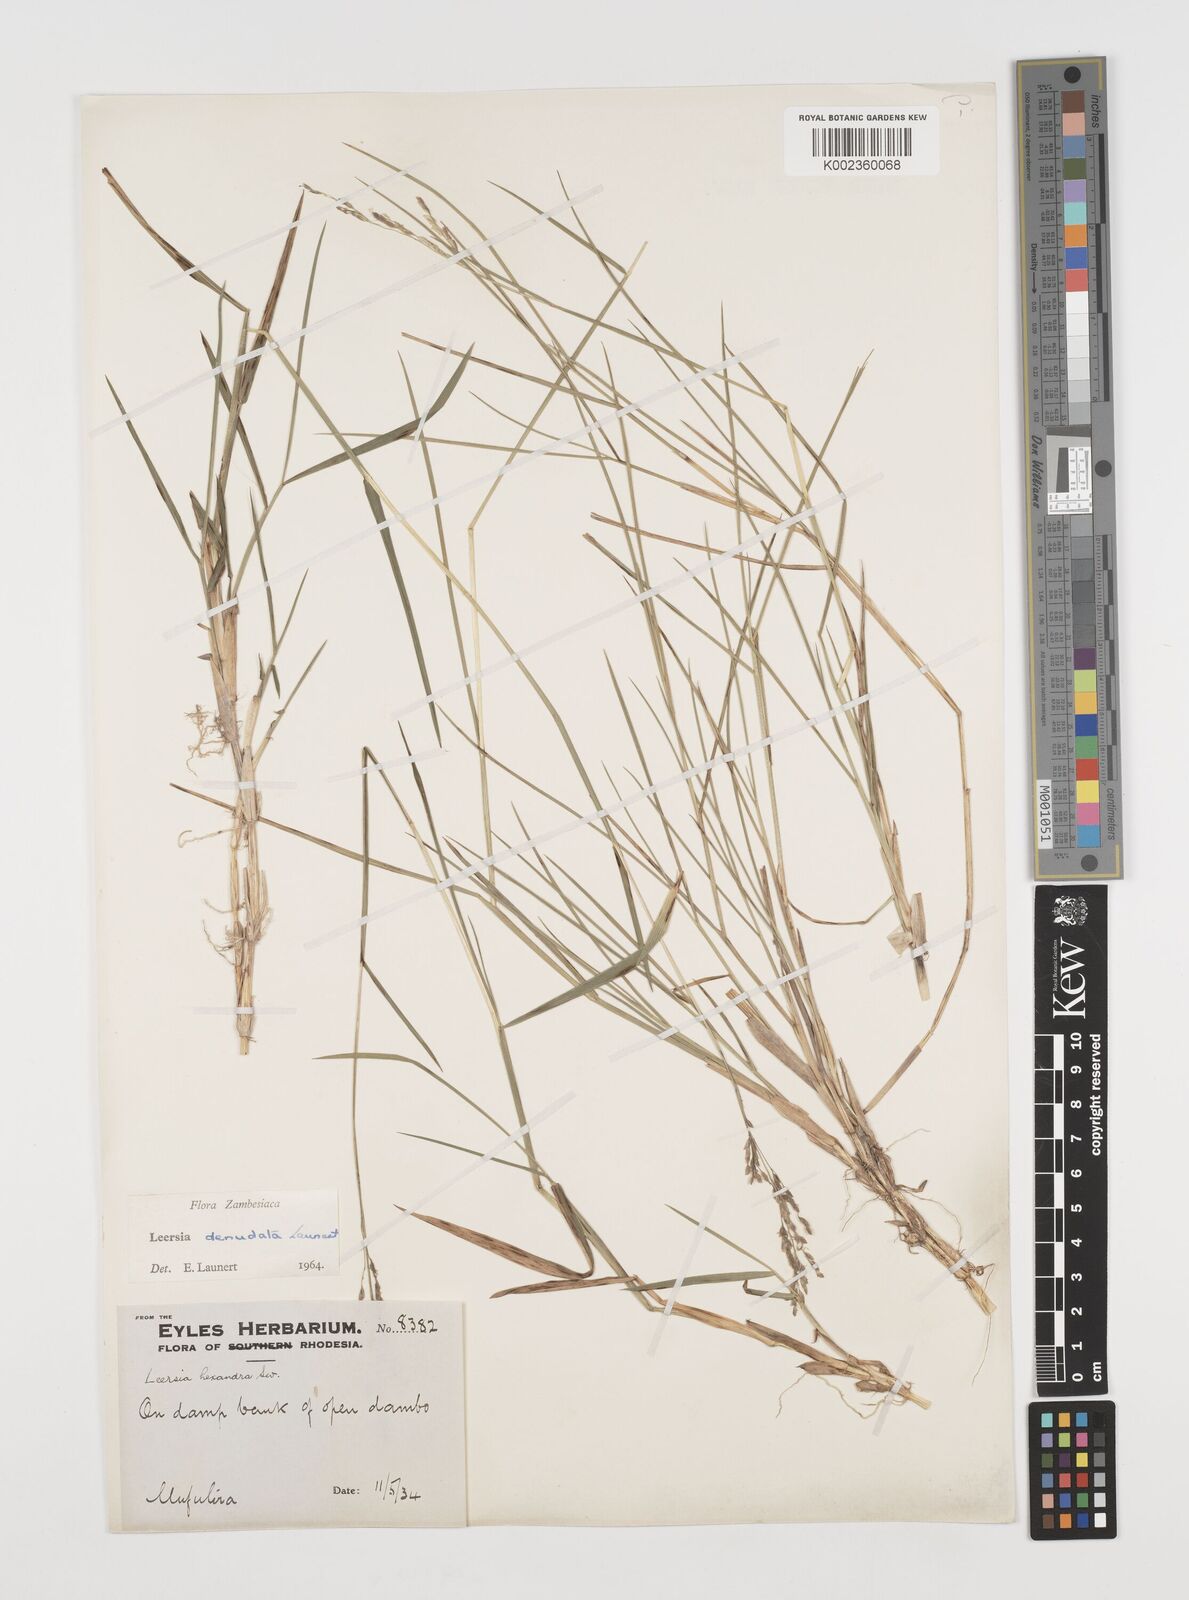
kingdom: Plantae
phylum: Tracheophyta
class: Liliopsida
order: Poales
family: Poaceae
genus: Leersia
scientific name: Leersia denudata
